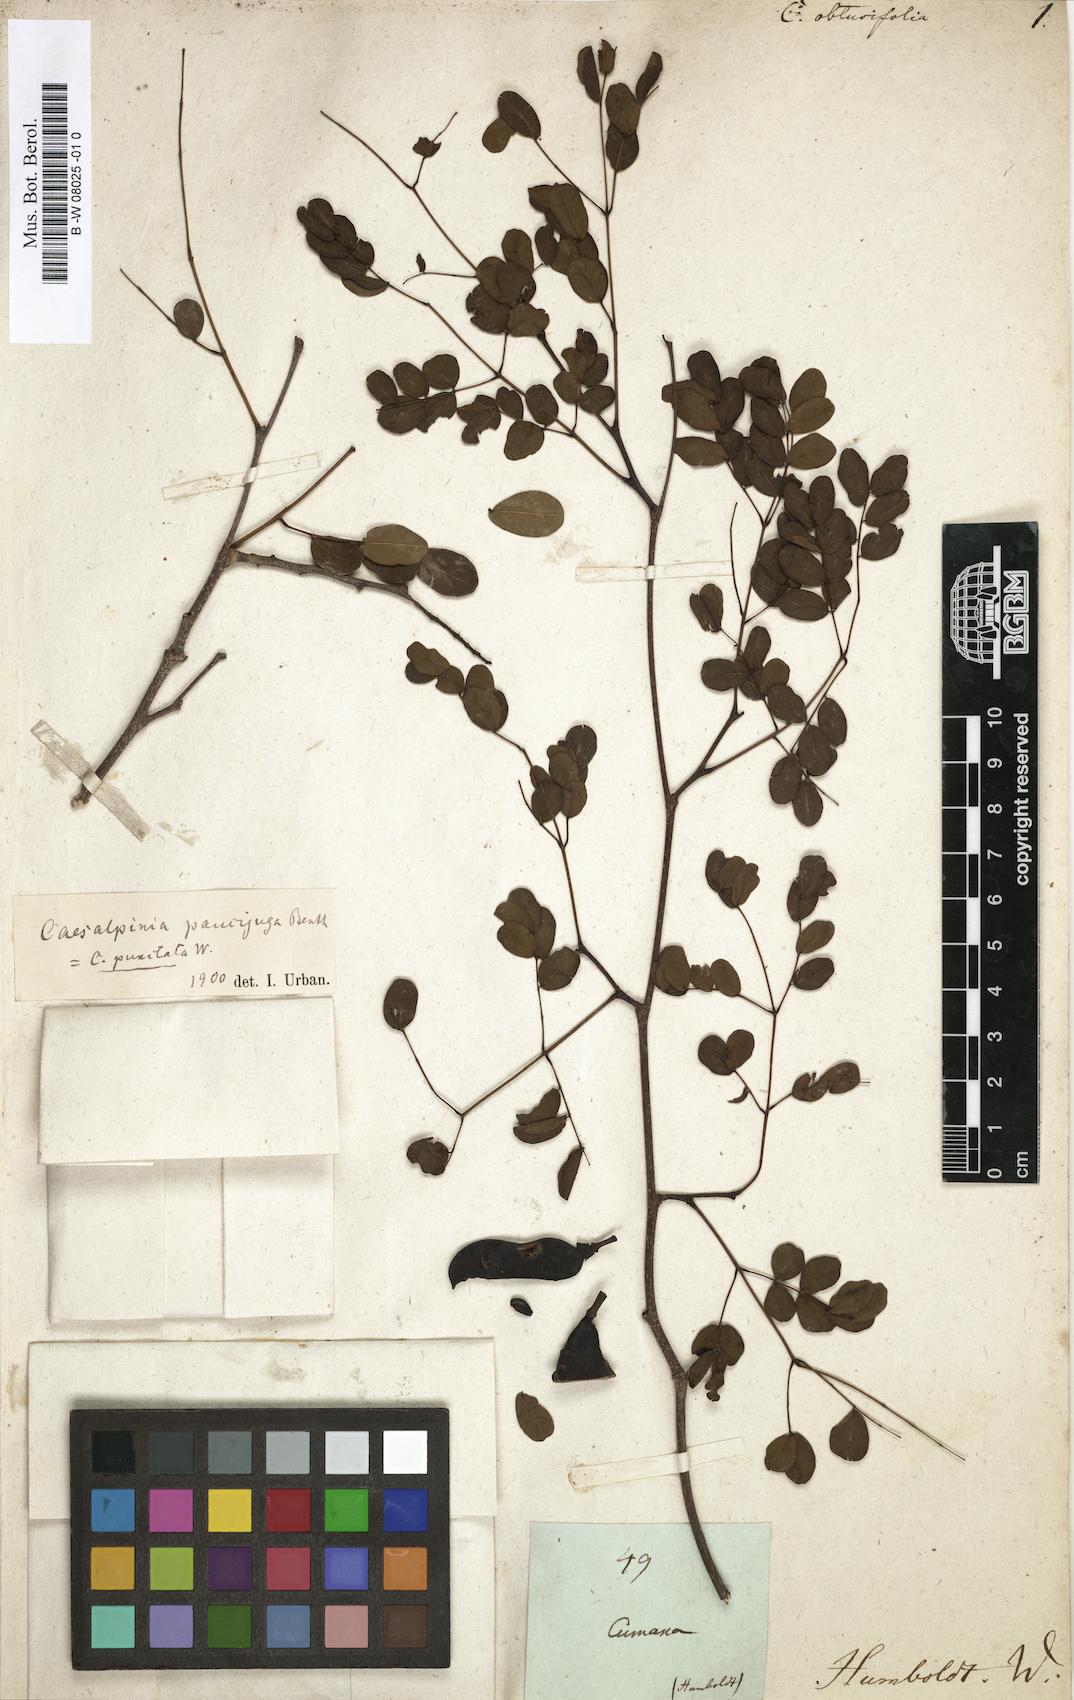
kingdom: Plantae
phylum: Tracheophyta
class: Magnoliopsida
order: Fabales
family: Fabaceae
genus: Caesalpinia
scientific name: Caesalpinia
